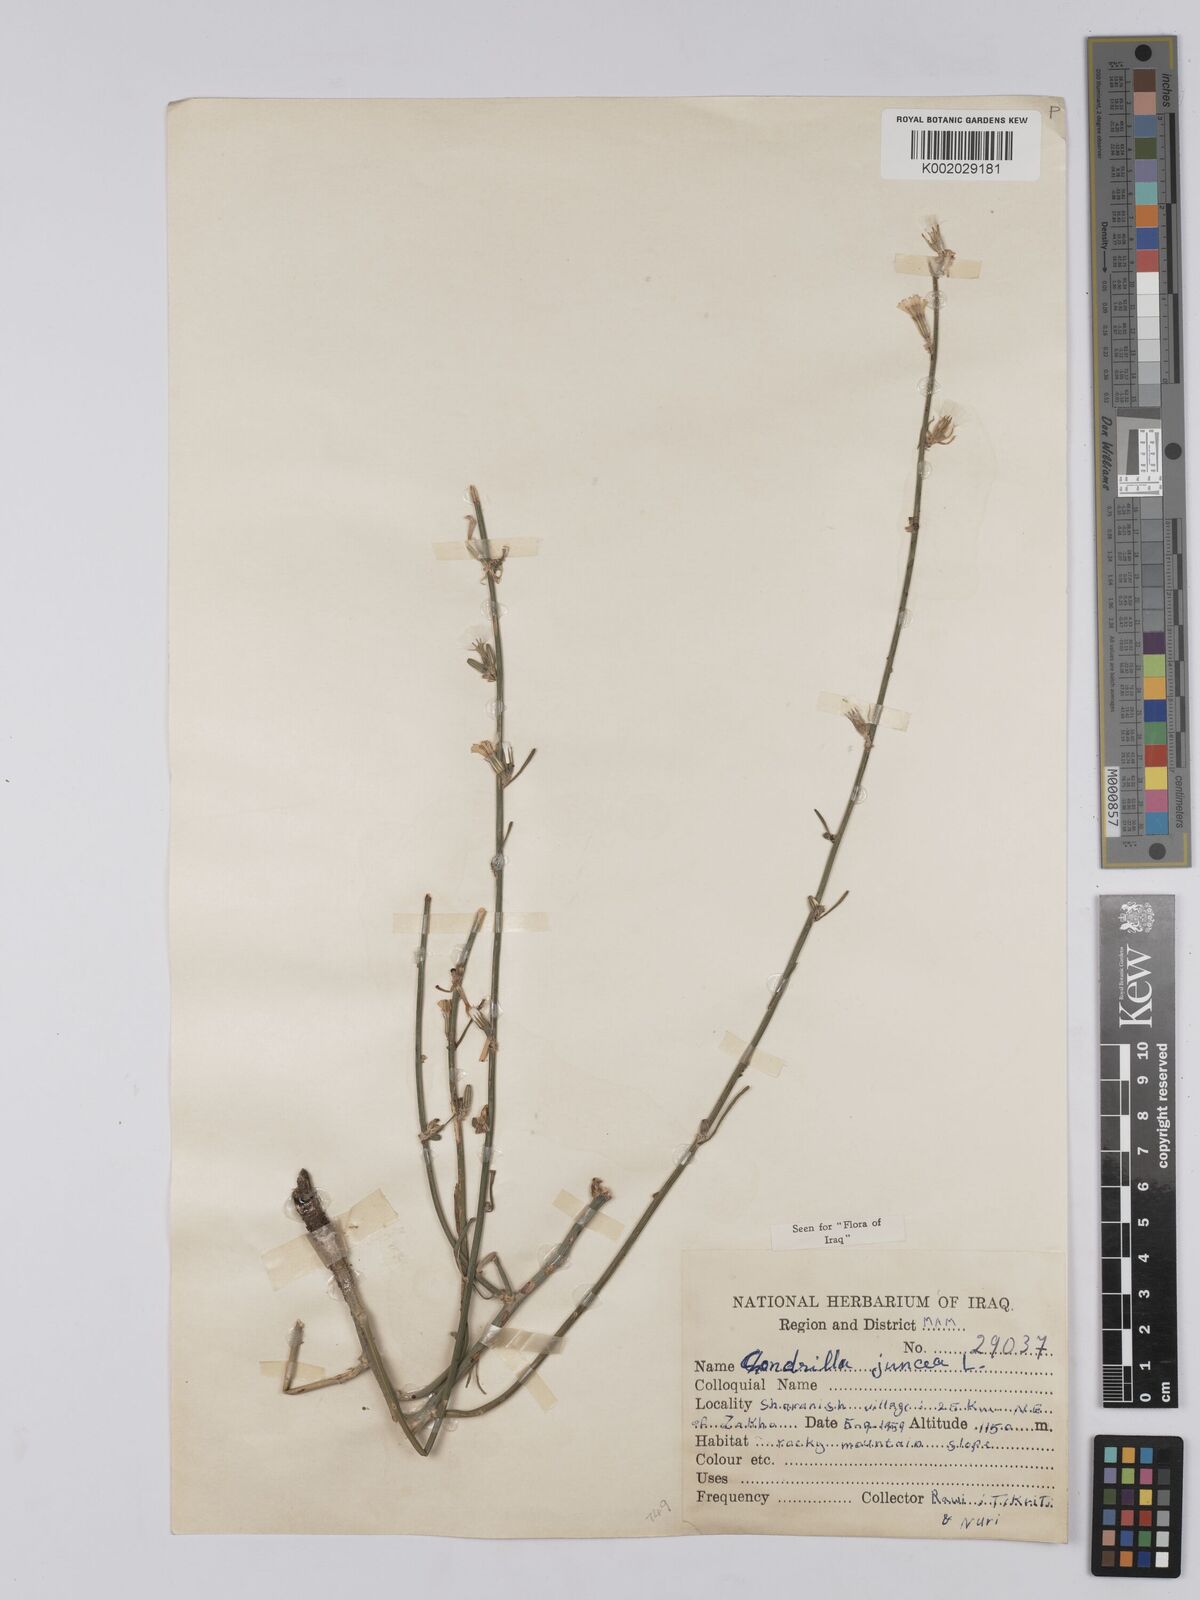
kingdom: Plantae
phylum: Tracheophyta
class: Magnoliopsida
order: Asterales
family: Asteraceae
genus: Chondrilla
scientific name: Chondrilla juncea
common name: Skeleton weed
